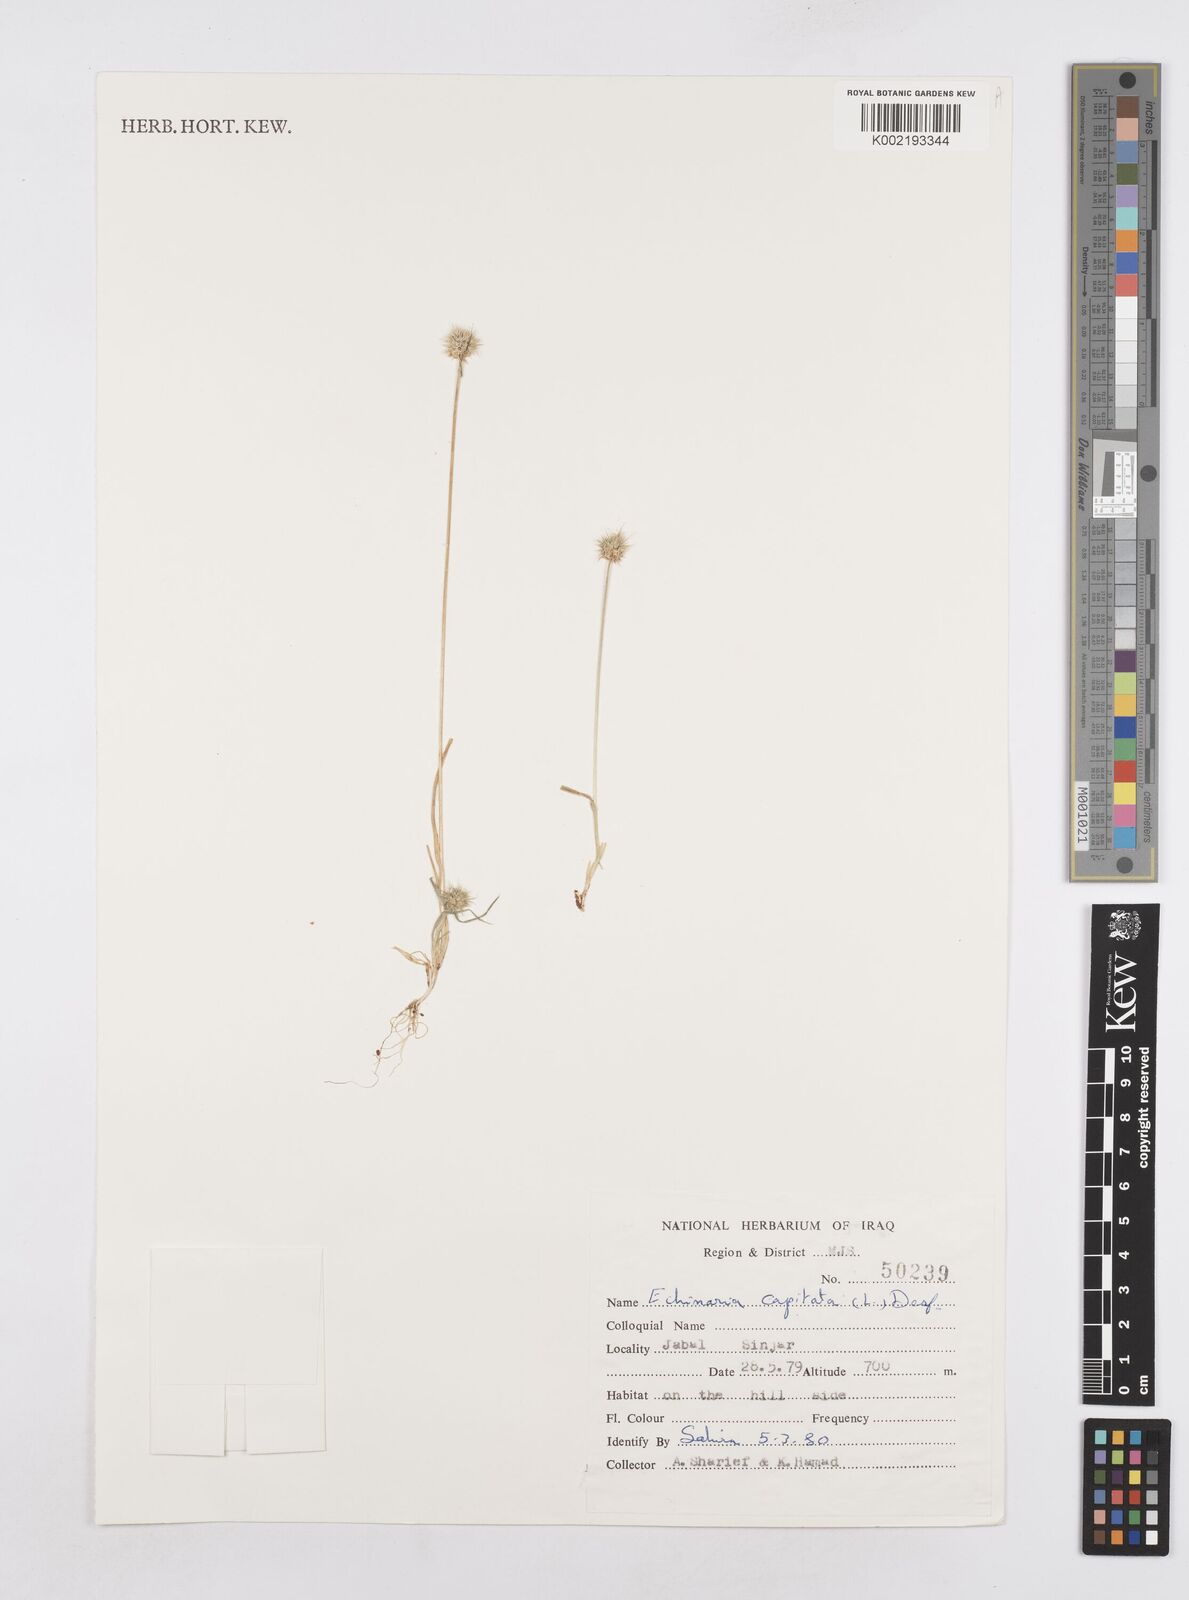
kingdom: Plantae
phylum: Tracheophyta
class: Liliopsida
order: Poales
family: Poaceae
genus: Echinaria
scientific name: Echinaria capitata
